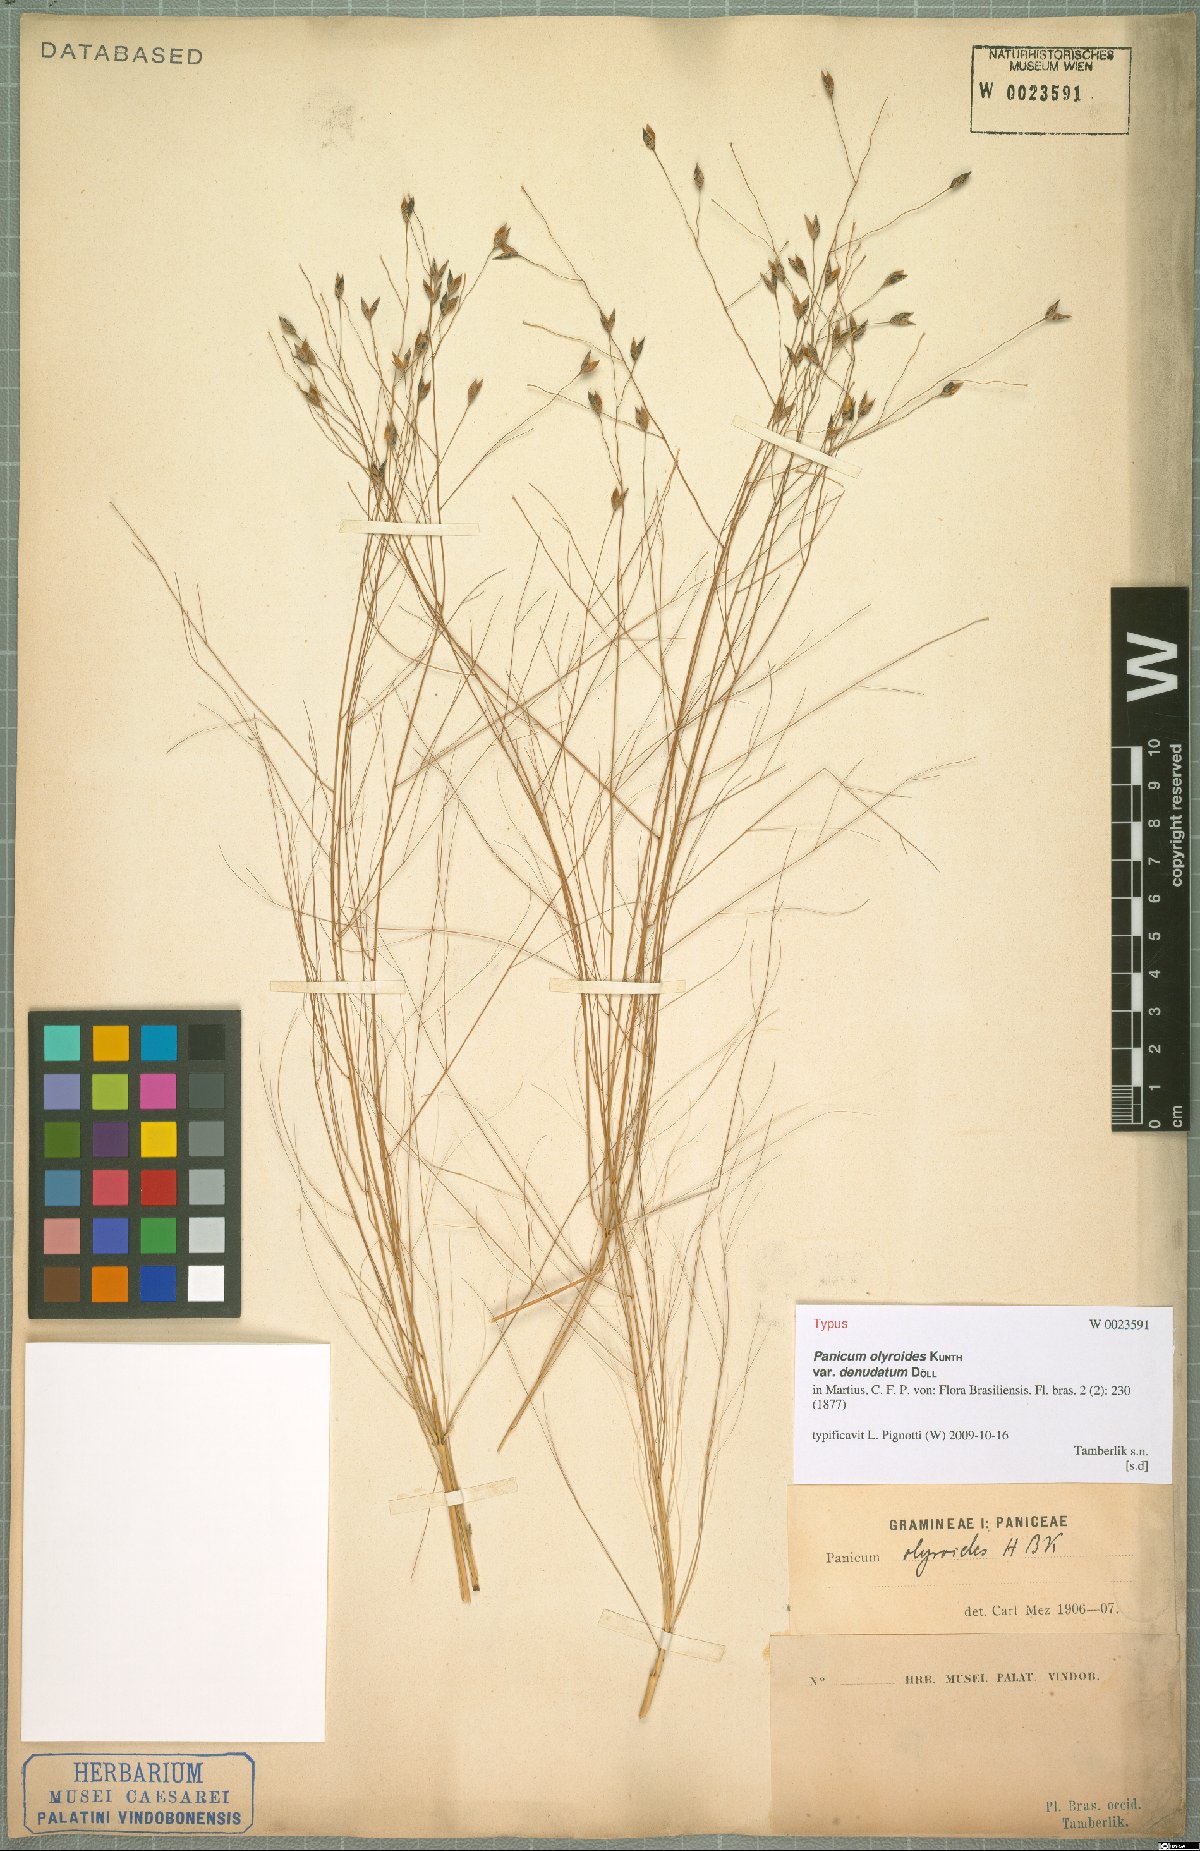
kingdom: Plantae
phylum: Tracheophyta
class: Liliopsida
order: Poales
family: Poaceae
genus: Panicum
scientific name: Panicum olyroides
